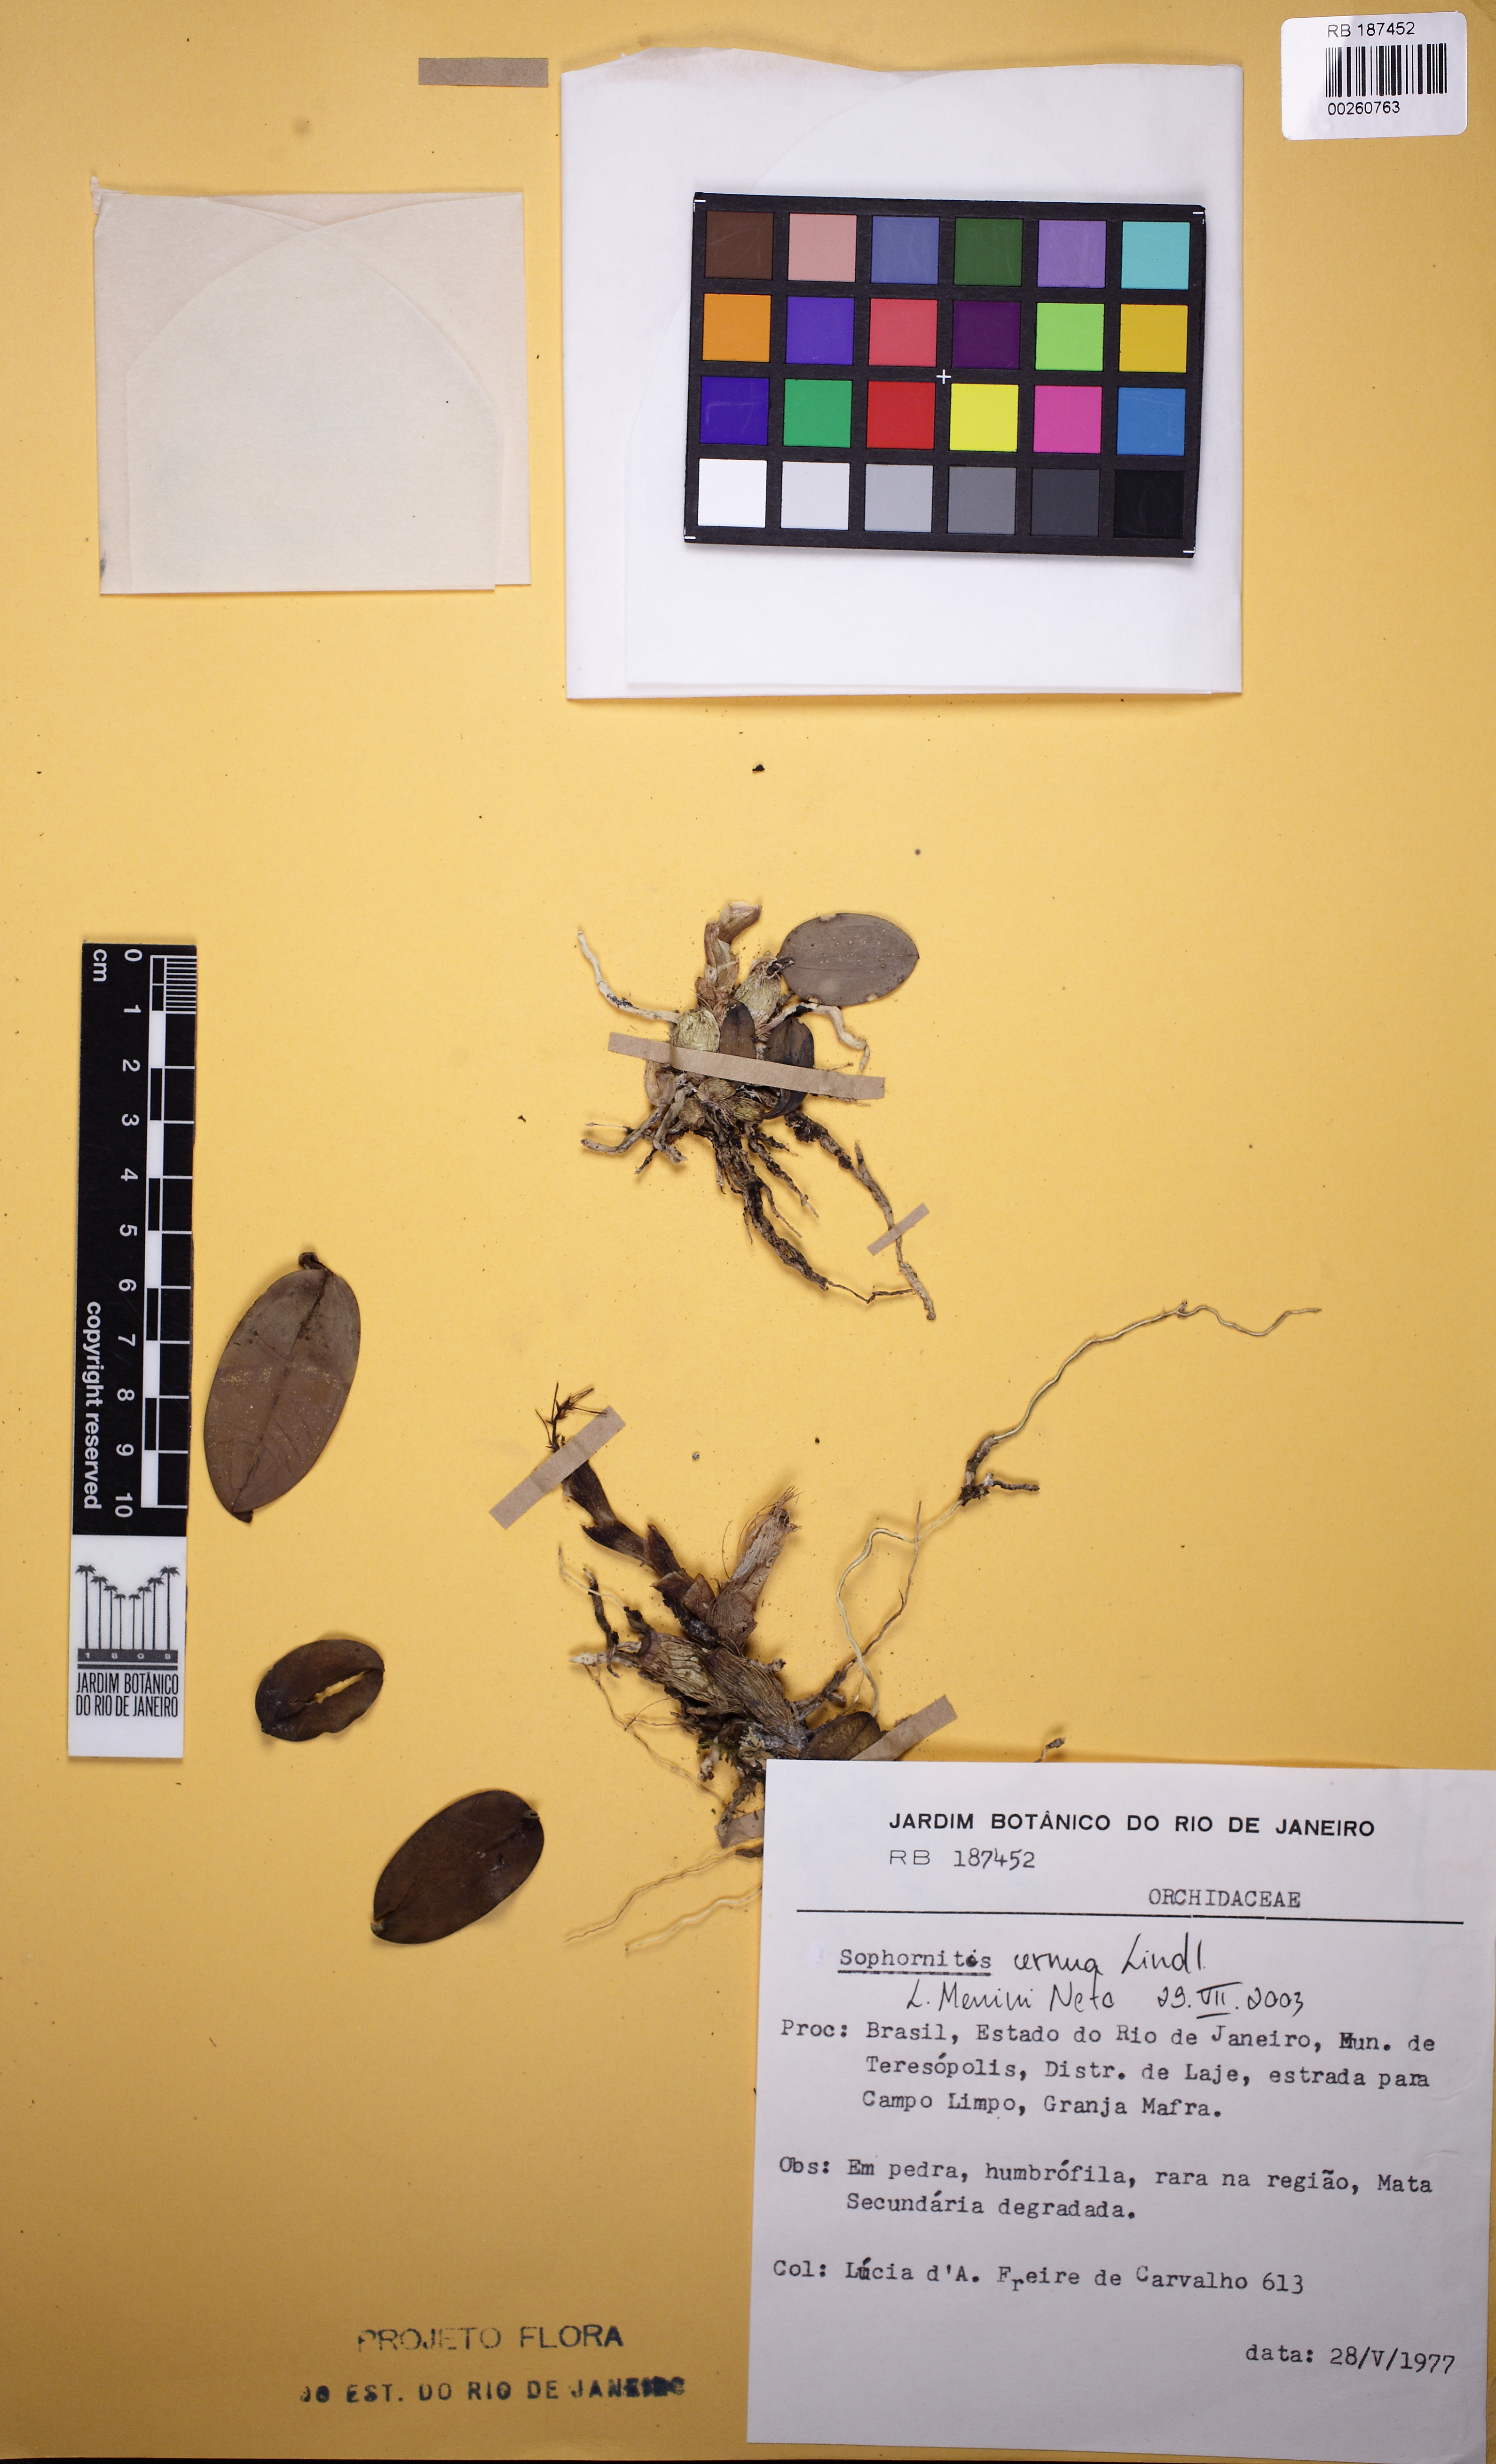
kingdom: Plantae
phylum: Tracheophyta
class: Liliopsida
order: Asparagales
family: Orchidaceae
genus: Cattleya
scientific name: Cattleya cernua
